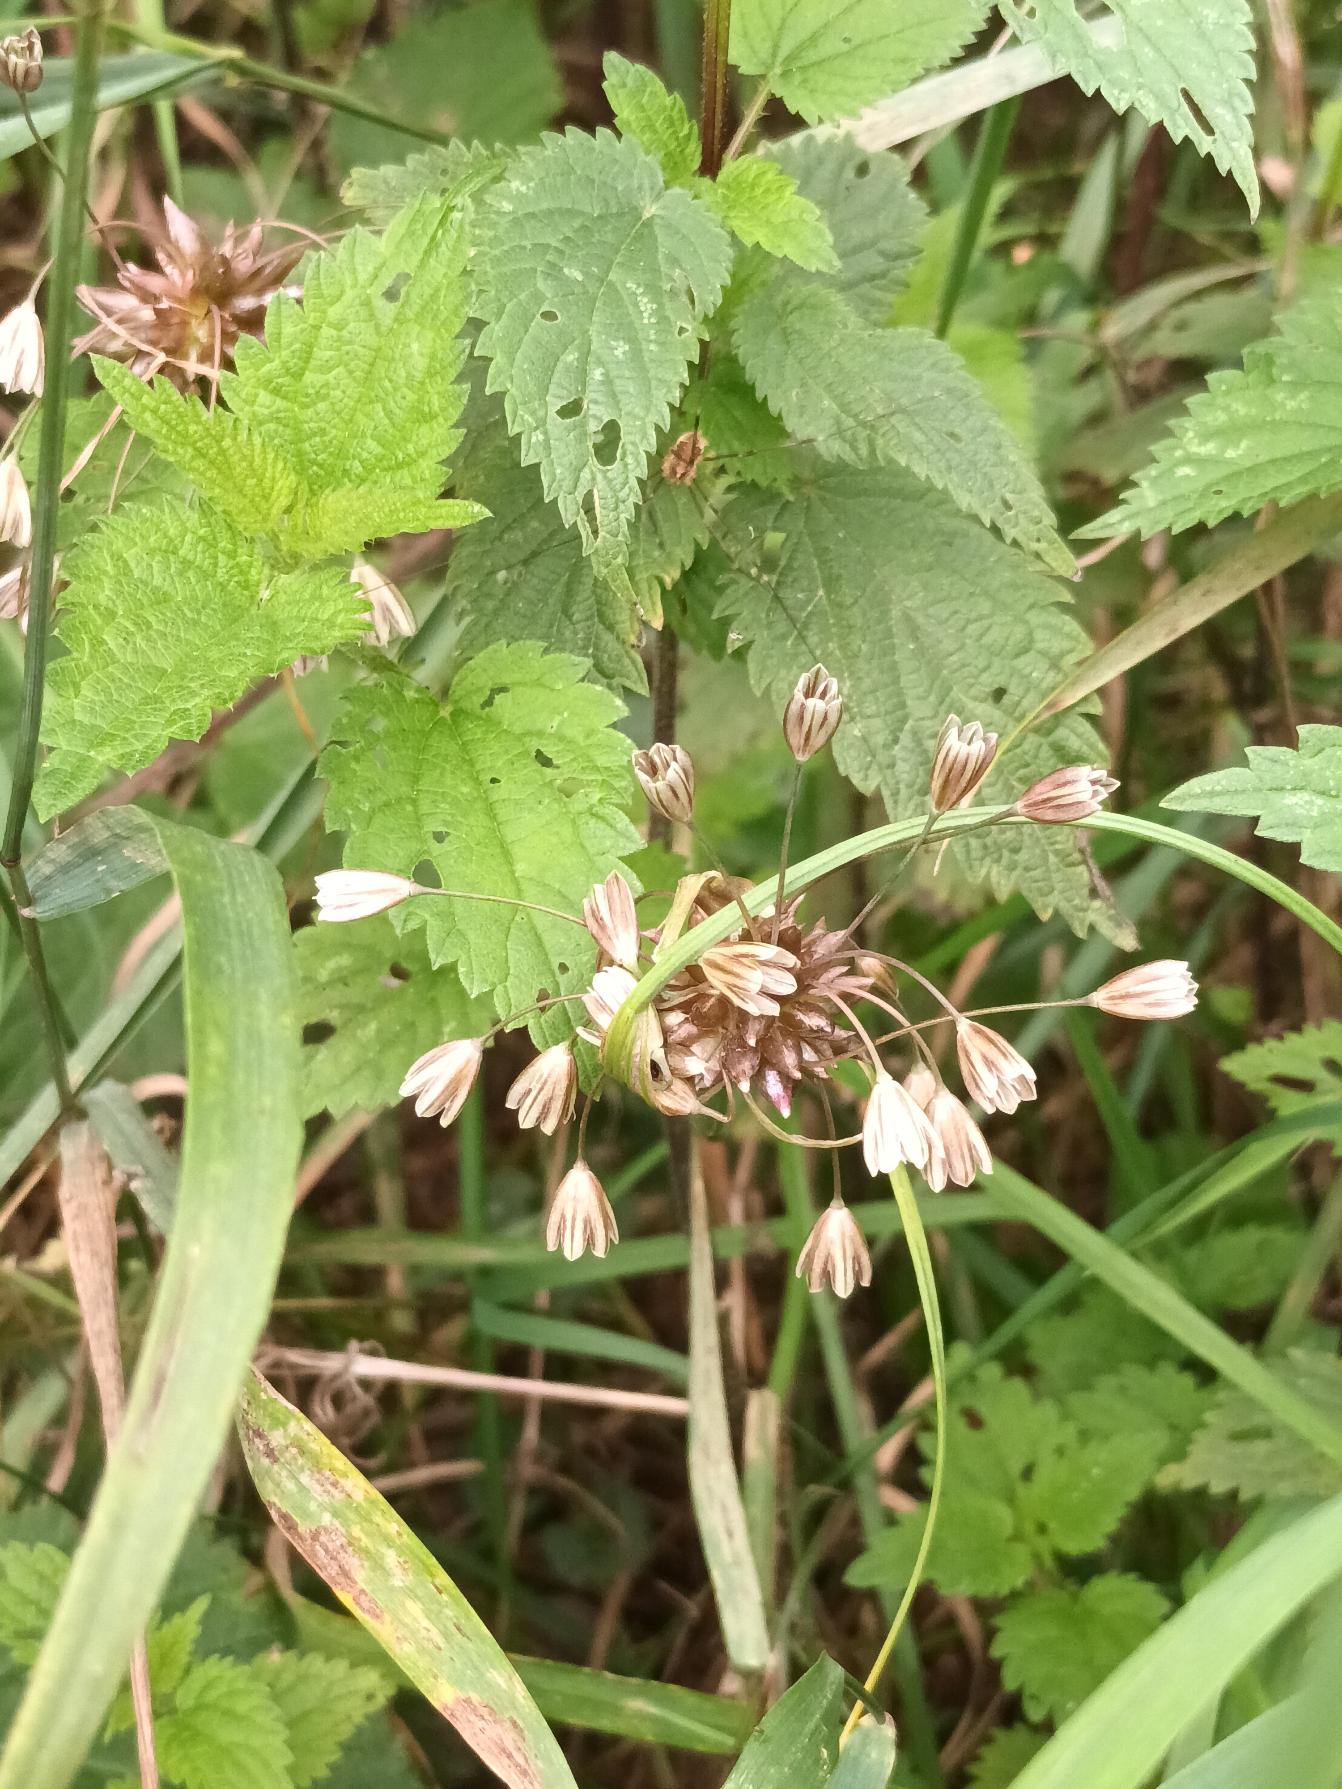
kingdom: Plantae
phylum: Tracheophyta
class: Liliopsida
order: Asparagales
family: Amaryllidaceae
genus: Allium
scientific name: Allium oleraceum
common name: Vild løg
